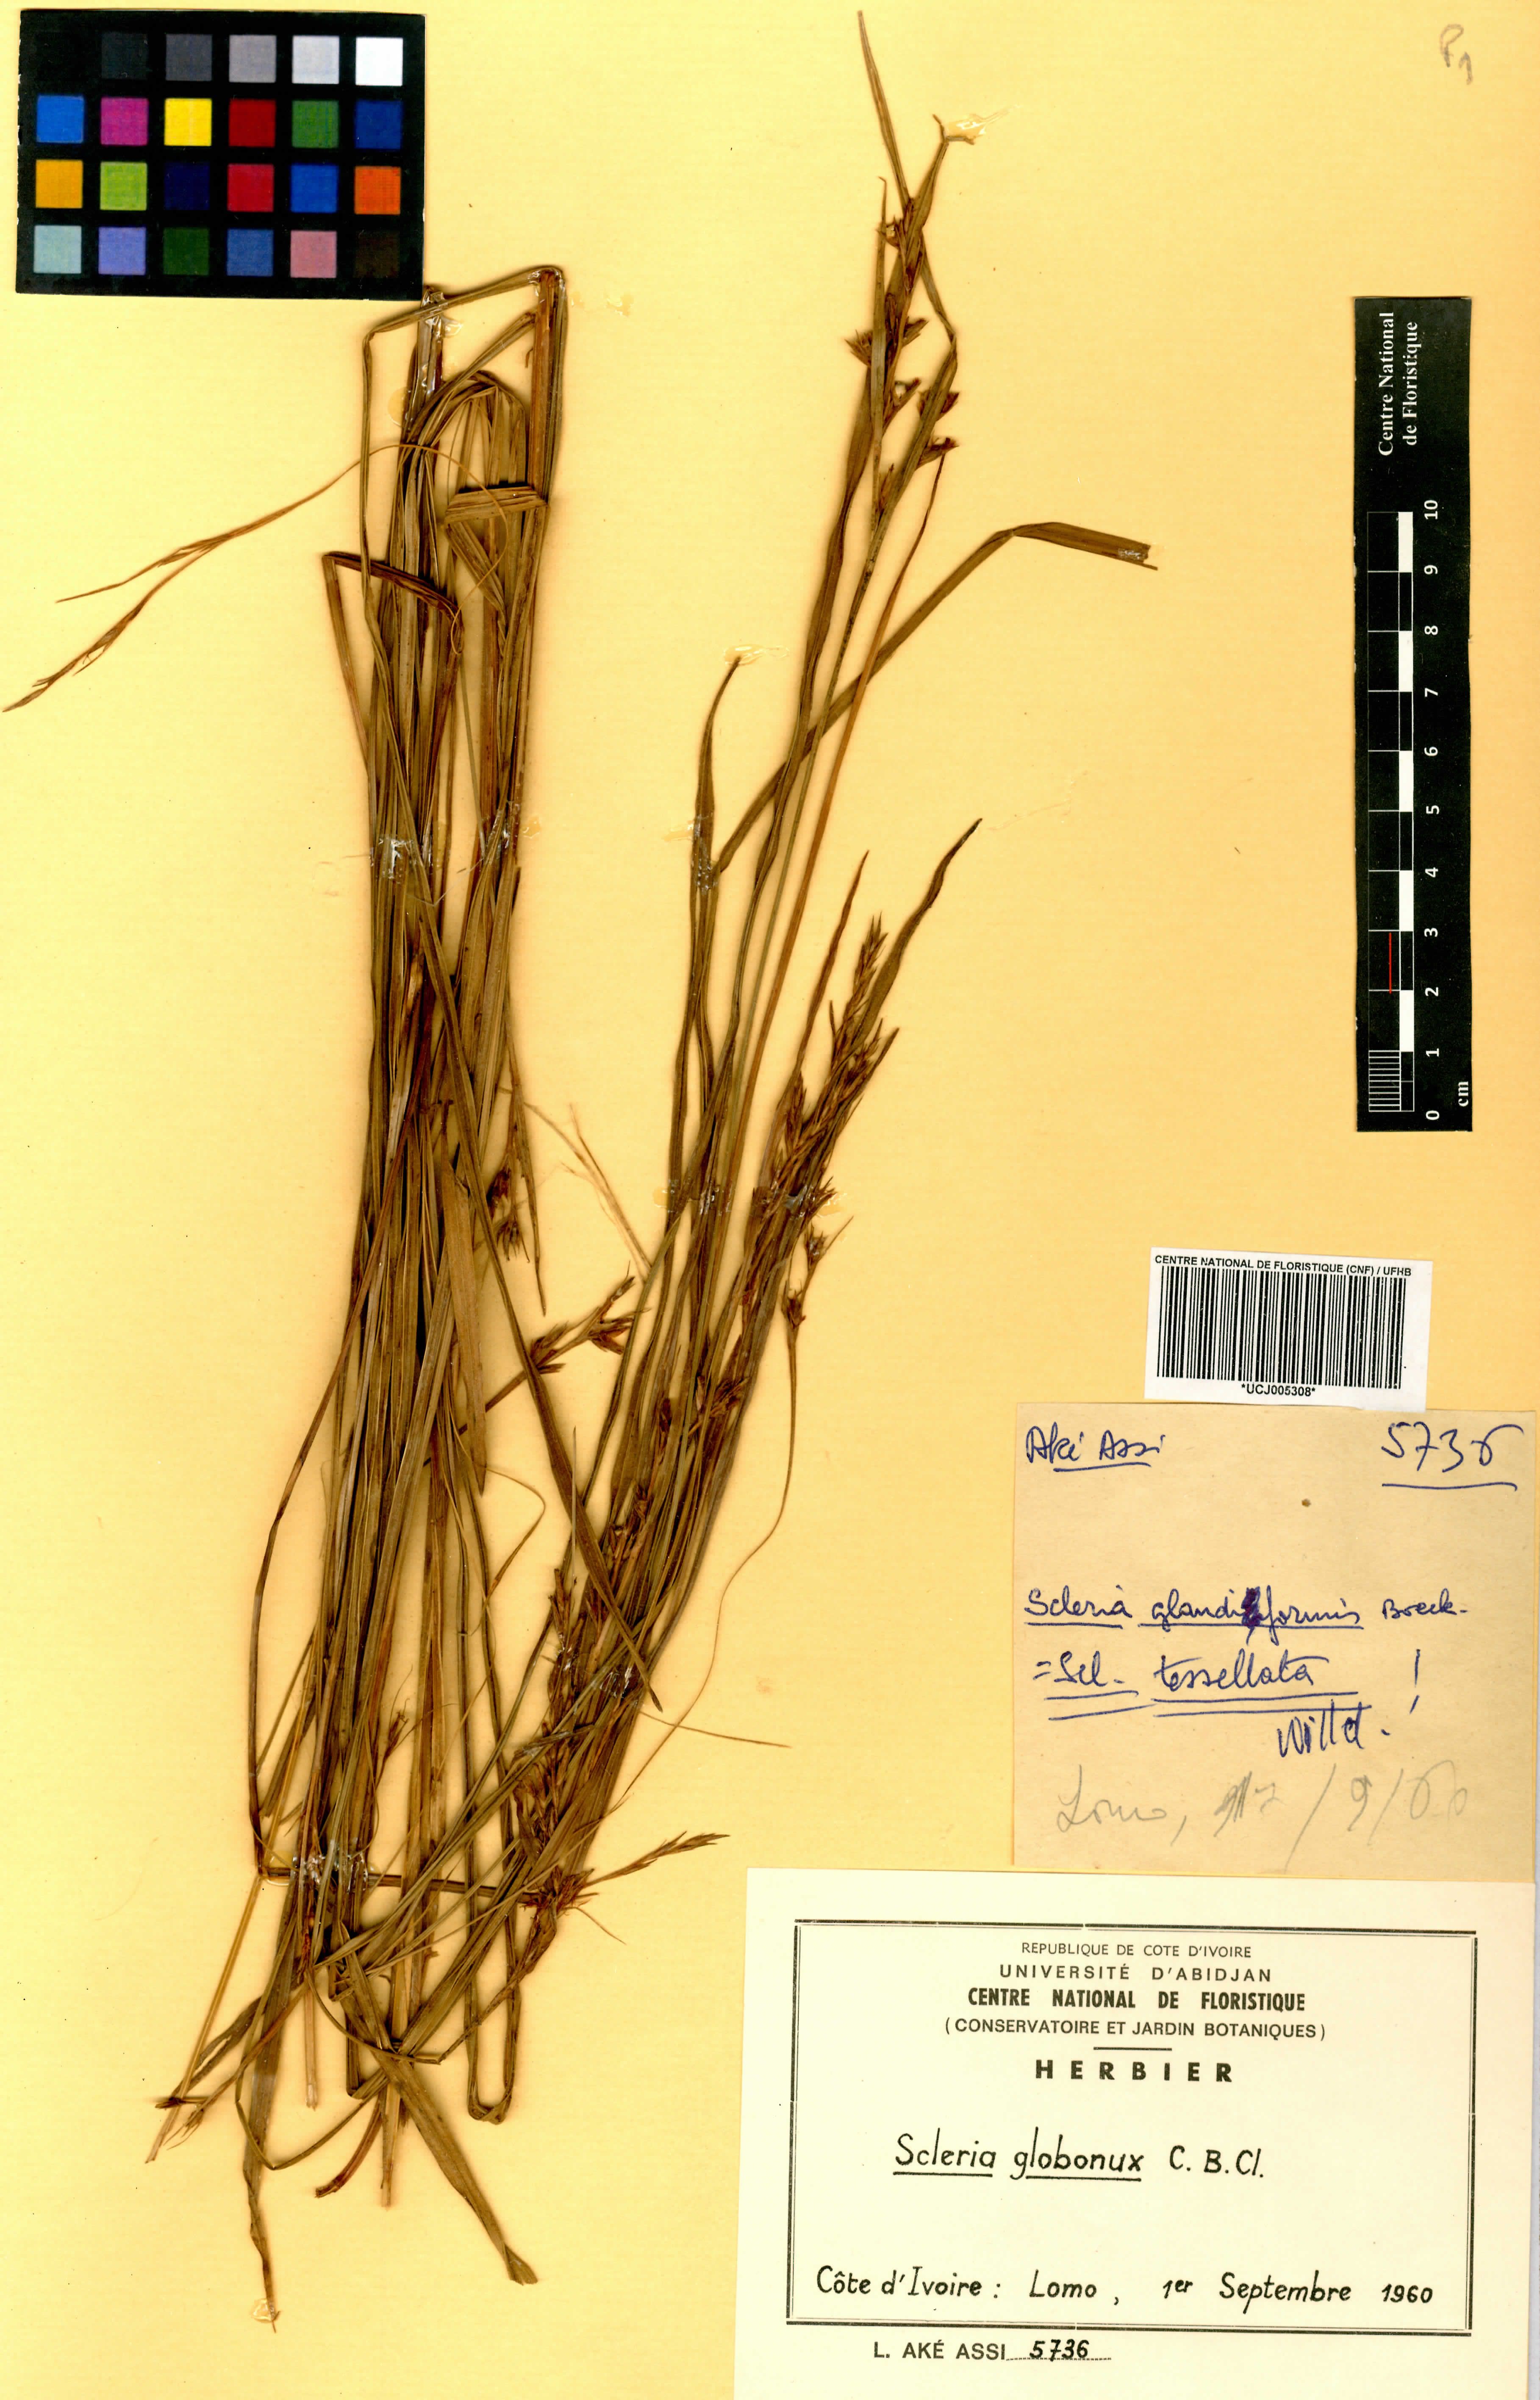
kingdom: Plantae
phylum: Tracheophyta
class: Liliopsida
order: Poales
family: Cyperaceae
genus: Scleria
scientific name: Scleria globonux
